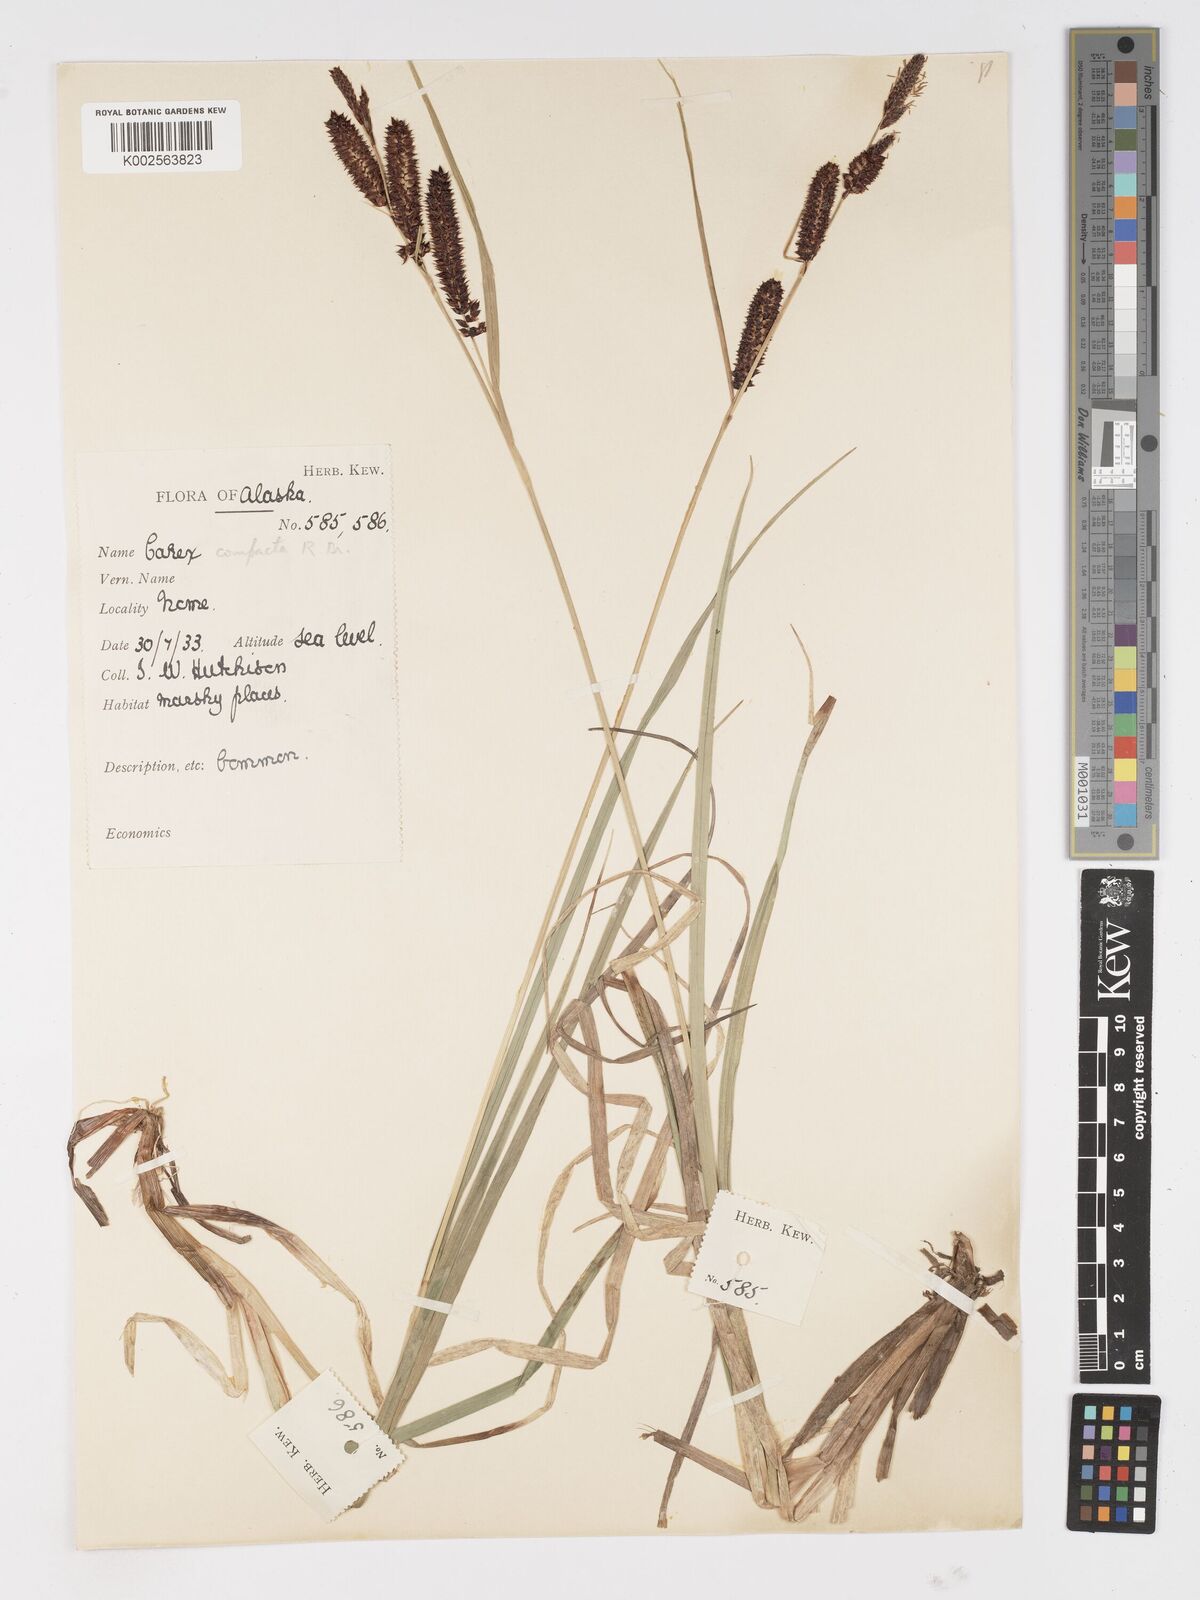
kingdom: Plantae
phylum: Tracheophyta
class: Liliopsida
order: Poales
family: Cyperaceae
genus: Carex
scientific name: Carex membranacea
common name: Fragile sedge
